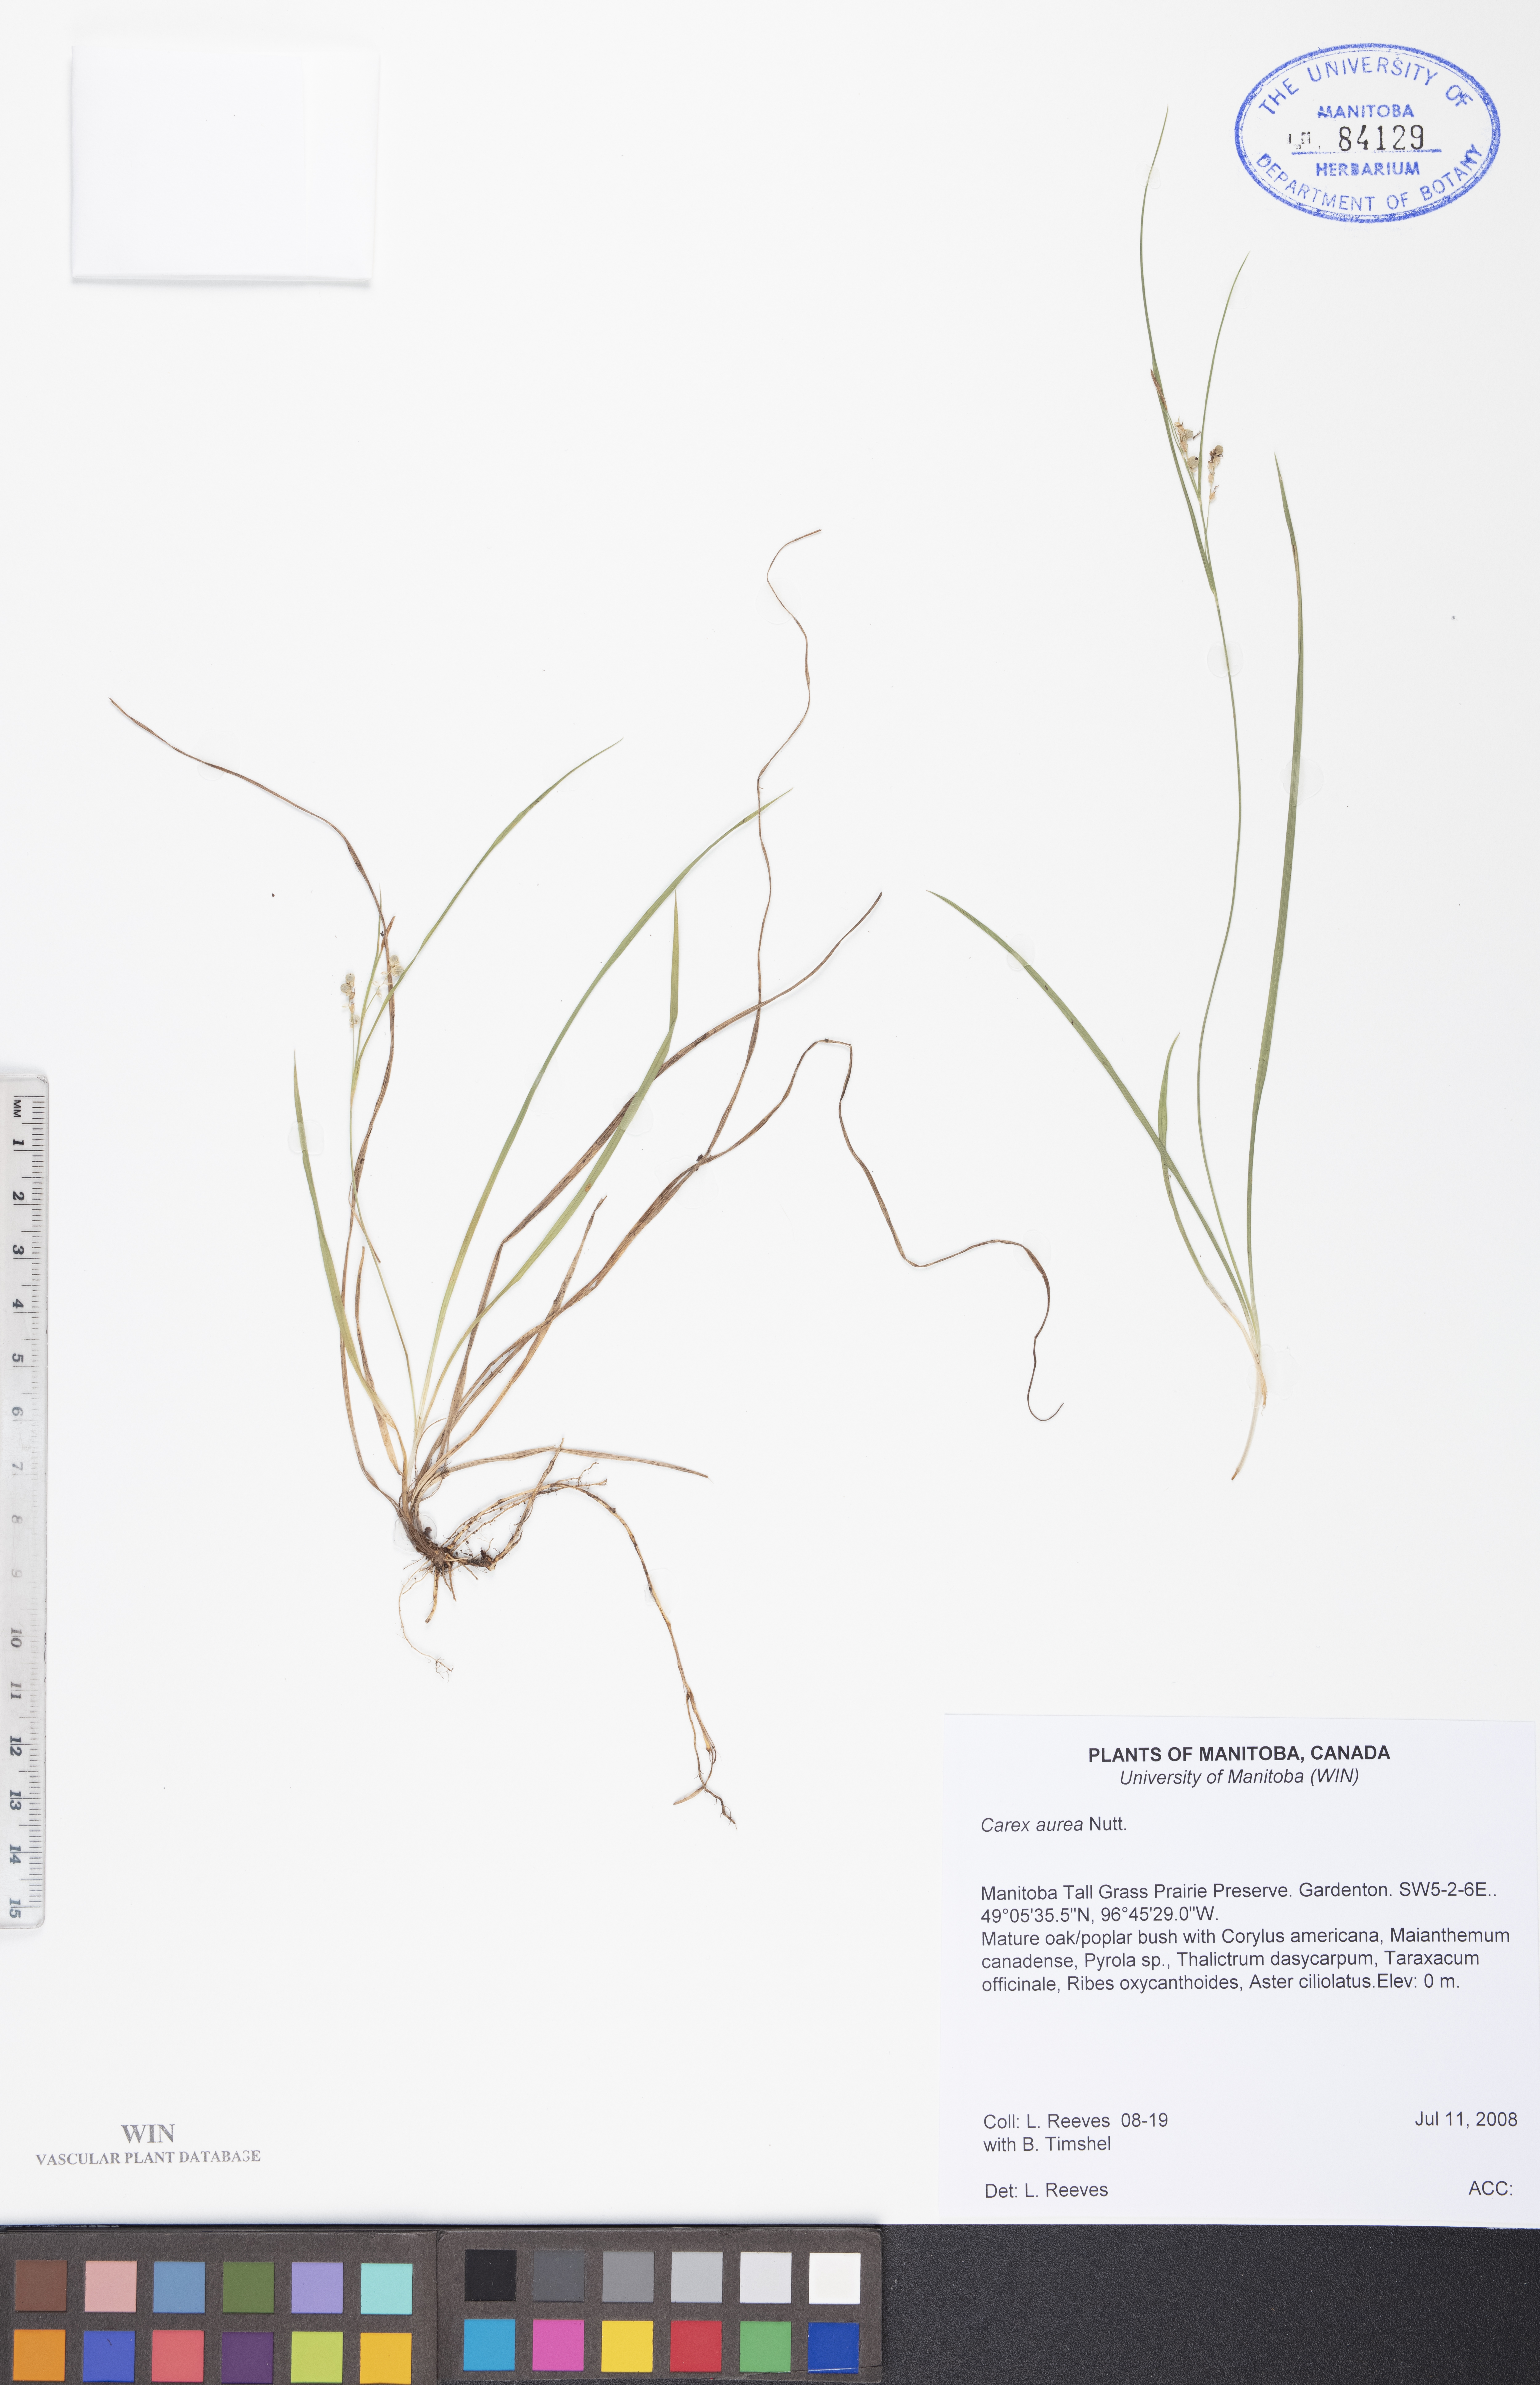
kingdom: Plantae
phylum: Tracheophyta
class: Liliopsida
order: Poales
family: Cyperaceae
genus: Carex
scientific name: Carex aurea
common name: Golden sedge
